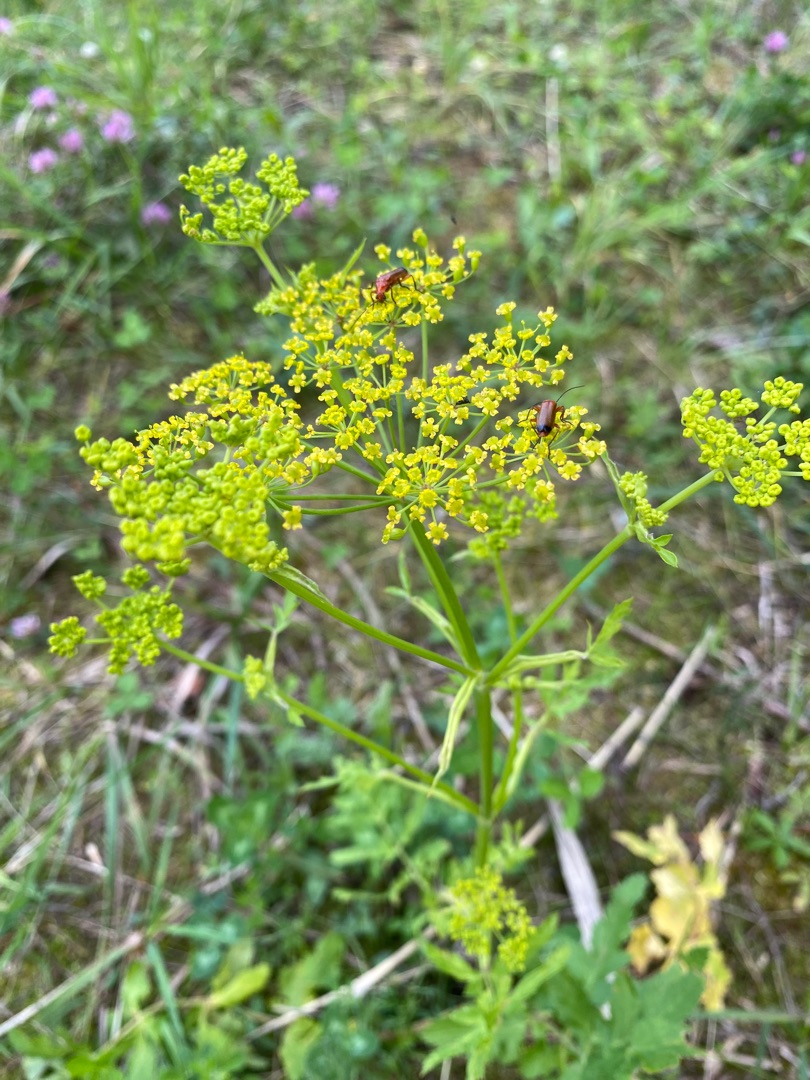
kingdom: Plantae
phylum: Tracheophyta
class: Magnoliopsida
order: Apiales
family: Apiaceae
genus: Pastinaca
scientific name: Pastinaca sativa
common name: Pastinak
